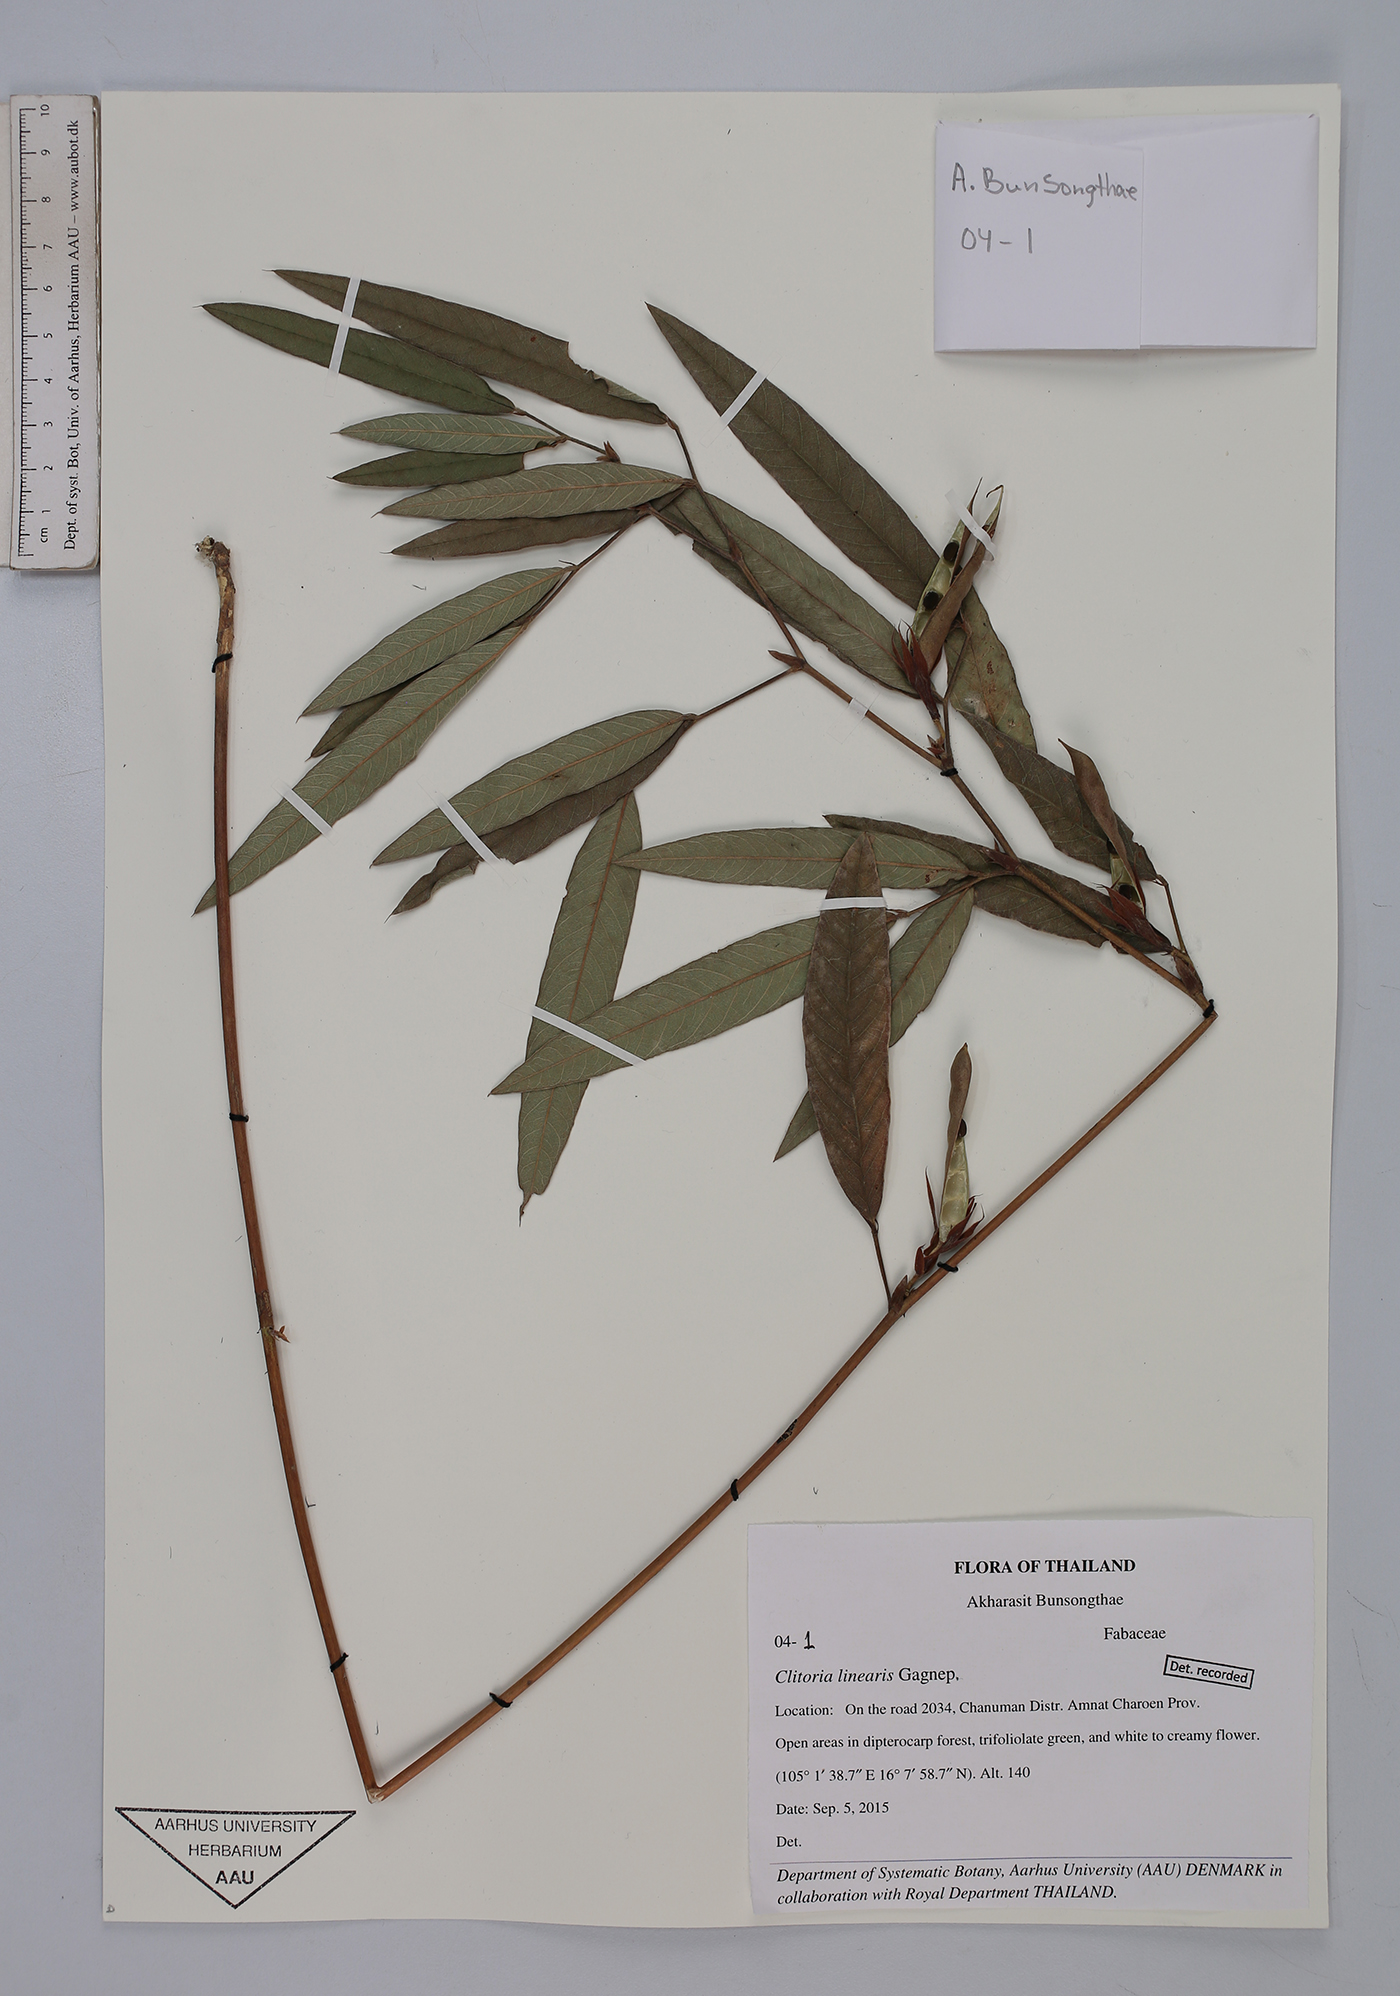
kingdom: Plantae
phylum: Tracheophyta
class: Magnoliopsida
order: Fabales
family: Fabaceae
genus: Clitoria
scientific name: Clitoria linearis
